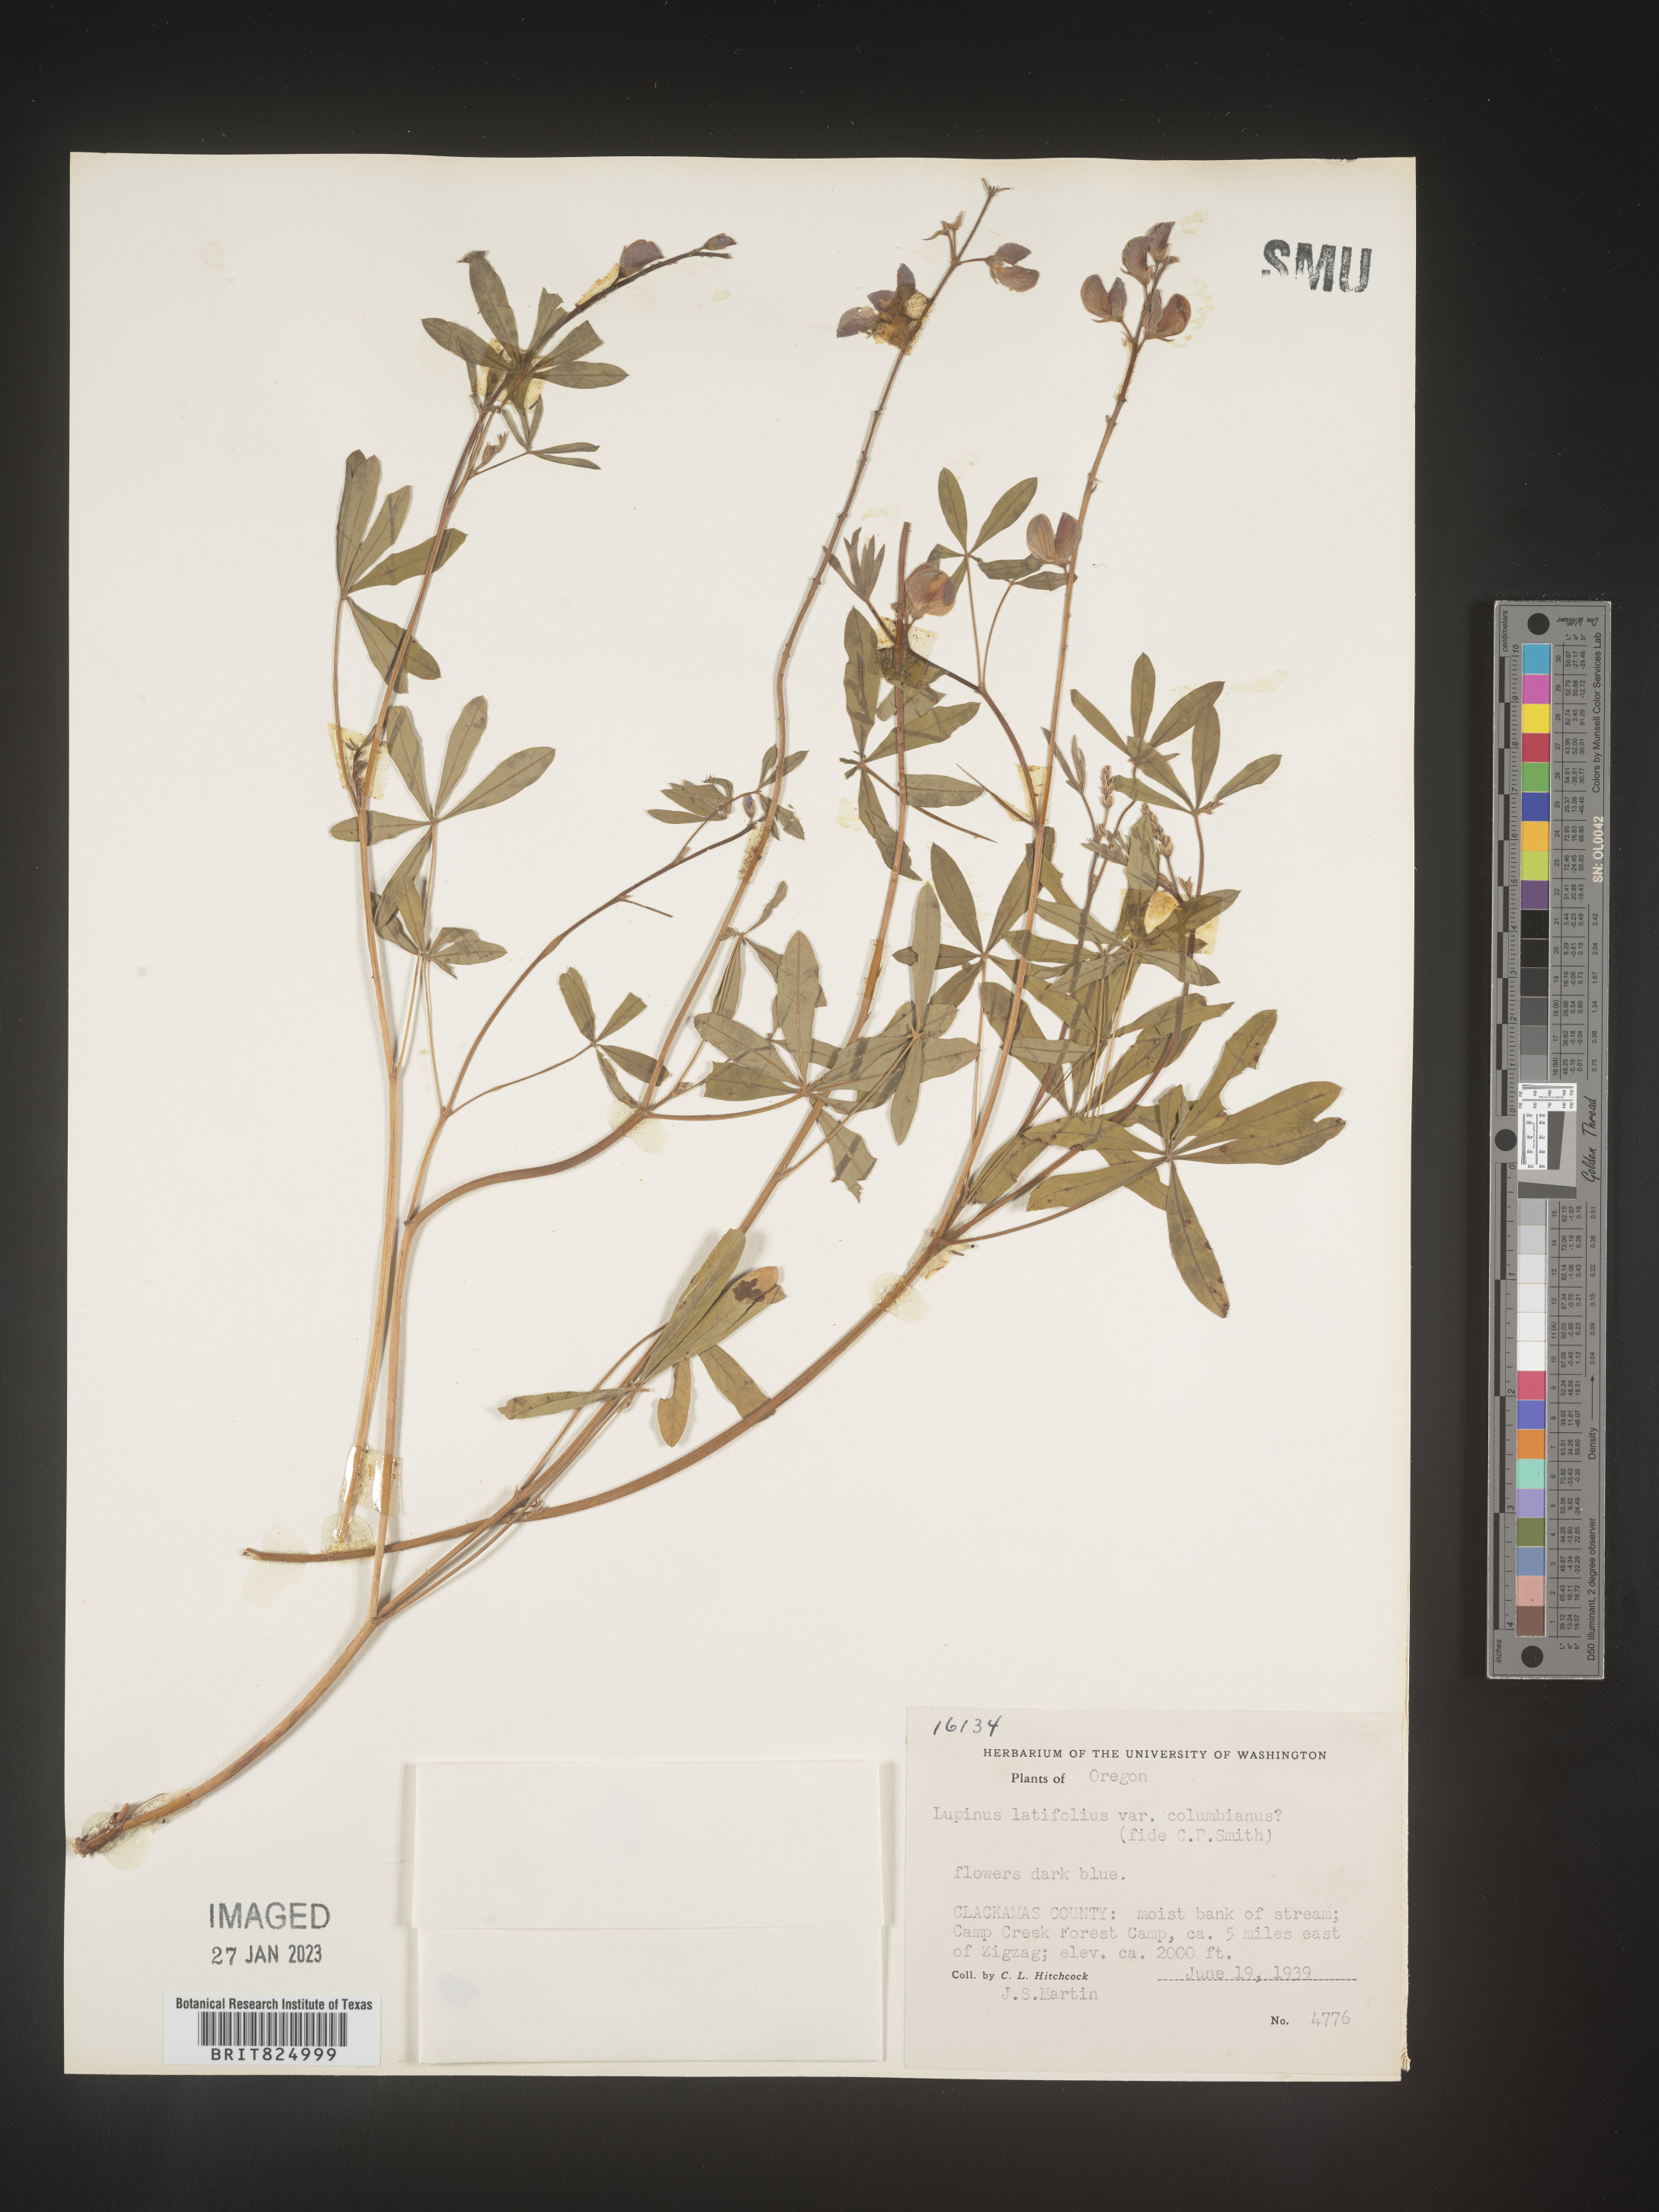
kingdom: Plantae
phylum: Tracheophyta
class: Magnoliopsida
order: Fabales
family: Fabaceae
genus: Lupinus
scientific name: Lupinus
